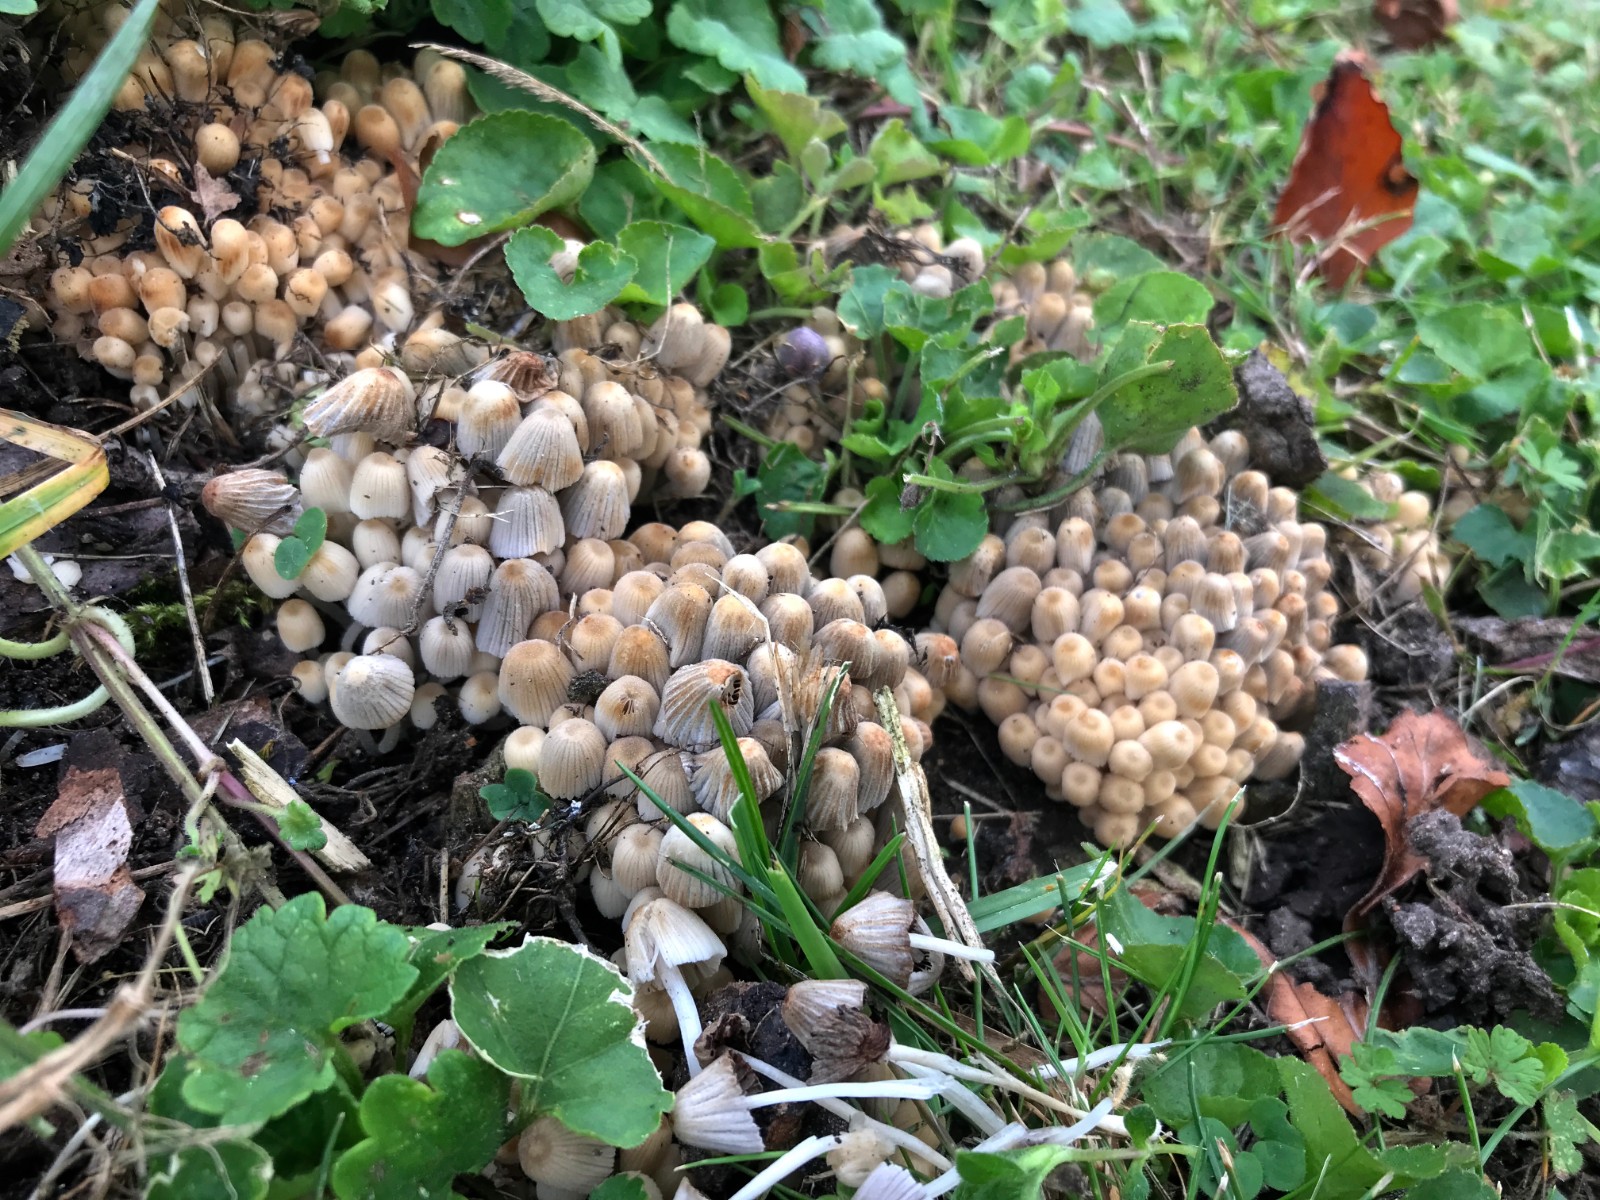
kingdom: Fungi
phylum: Basidiomycota
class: Agaricomycetes
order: Agaricales
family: Psathyrellaceae
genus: Coprinellus
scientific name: Coprinellus disseminatus
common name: bredsået blækhat
